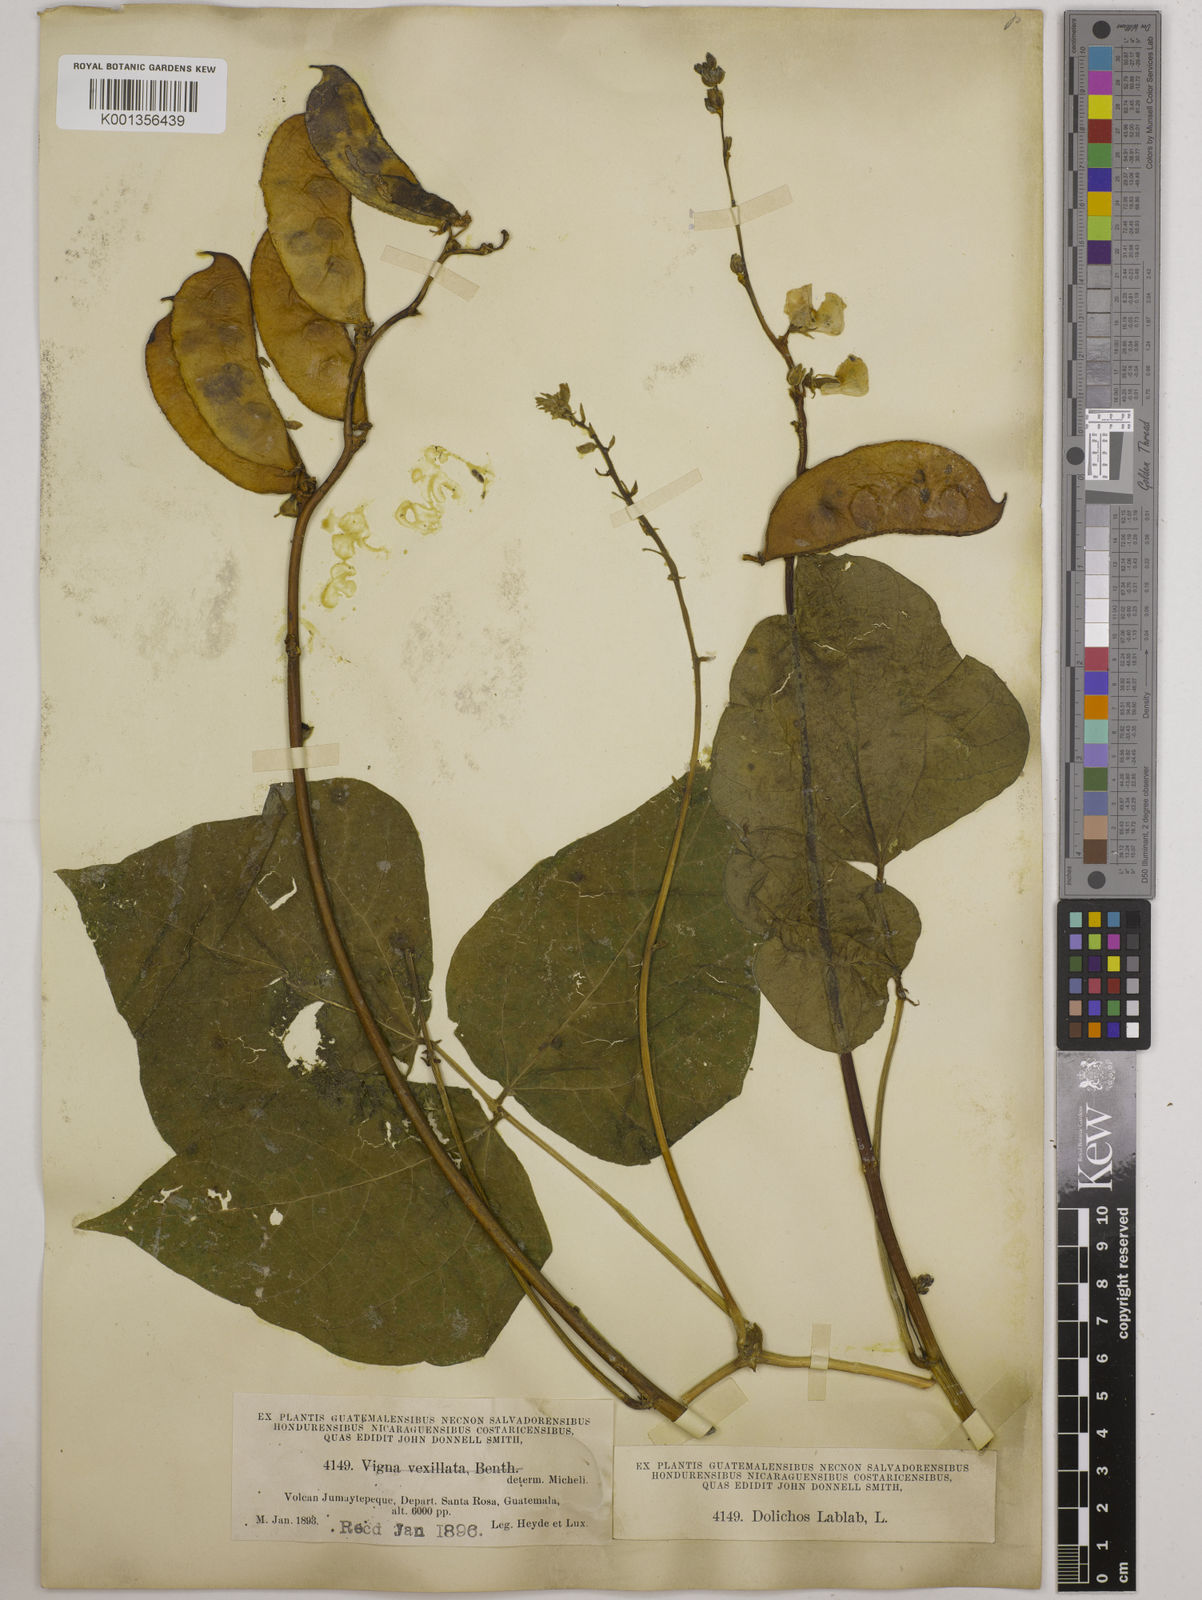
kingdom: Plantae
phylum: Tracheophyta
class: Magnoliopsida
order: Fabales
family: Fabaceae
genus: Lablab
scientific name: Lablab purpureus
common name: Lablab-bean
